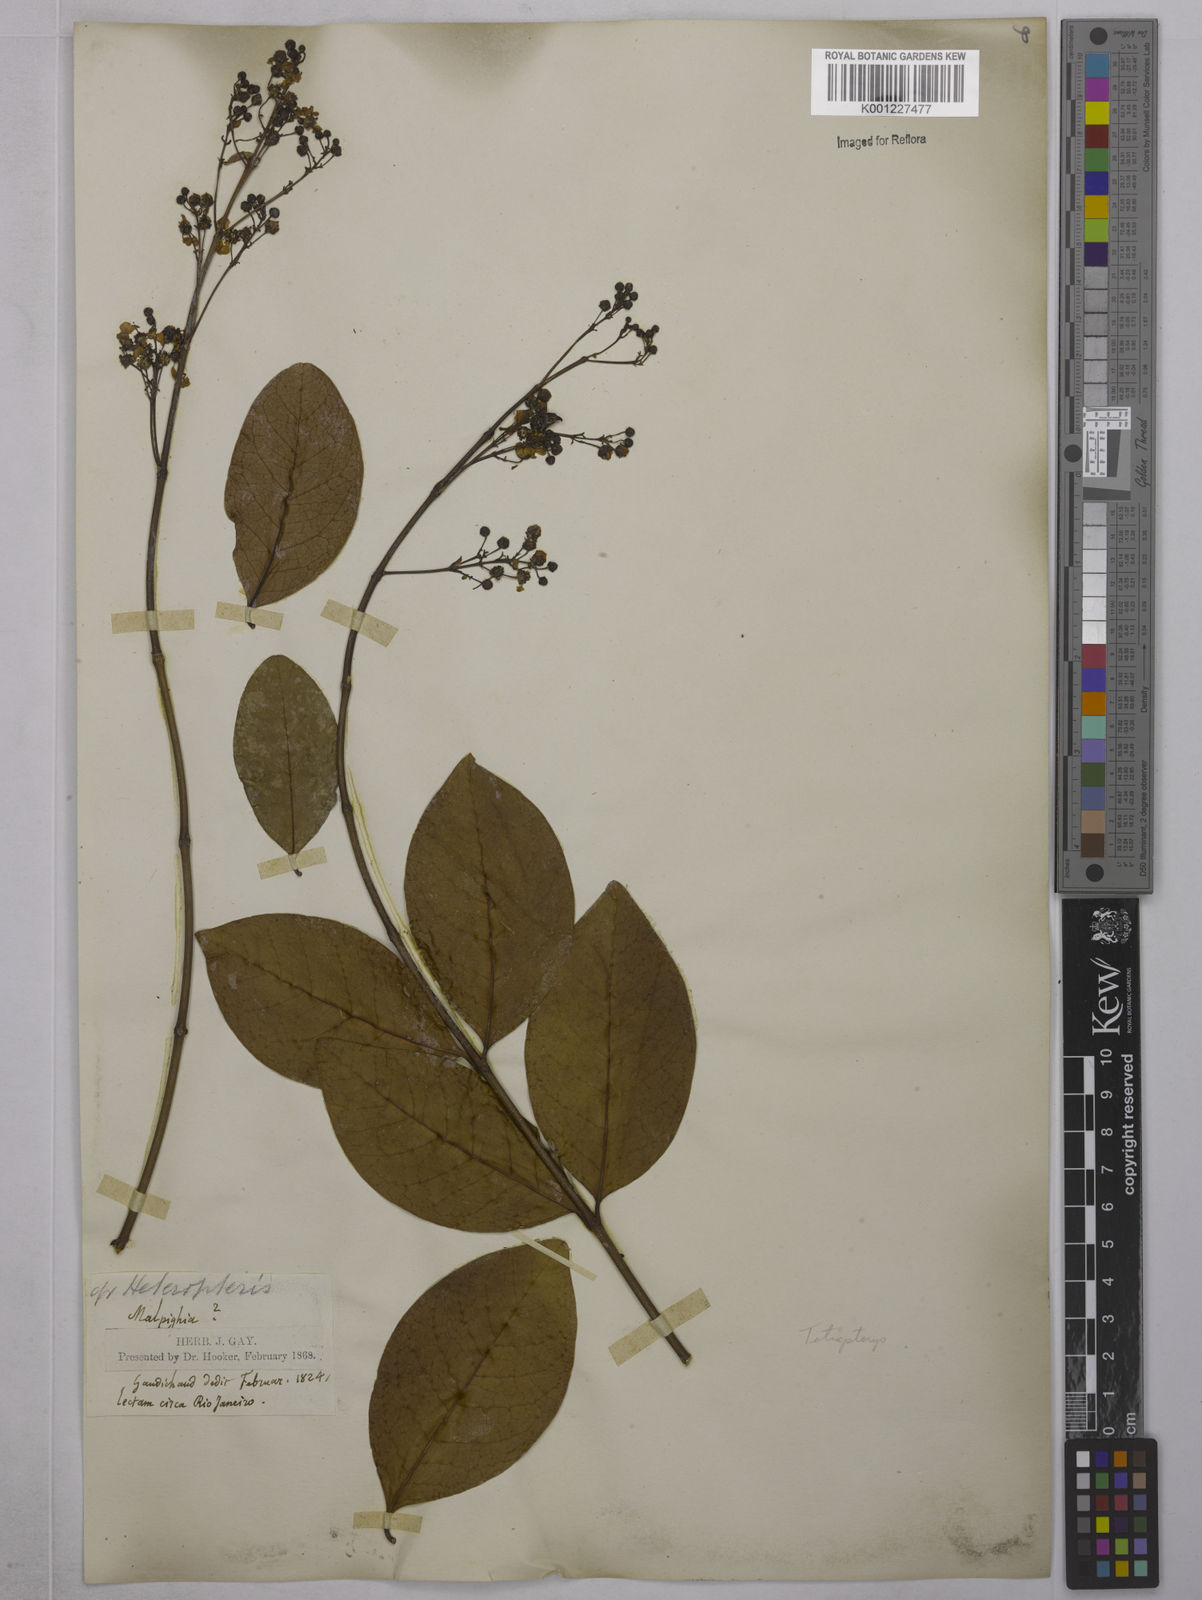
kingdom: Plantae
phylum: Tracheophyta
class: Magnoliopsida
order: Malpighiales
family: Malpighiaceae
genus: Tetrapterys
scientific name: Tetrapterys
